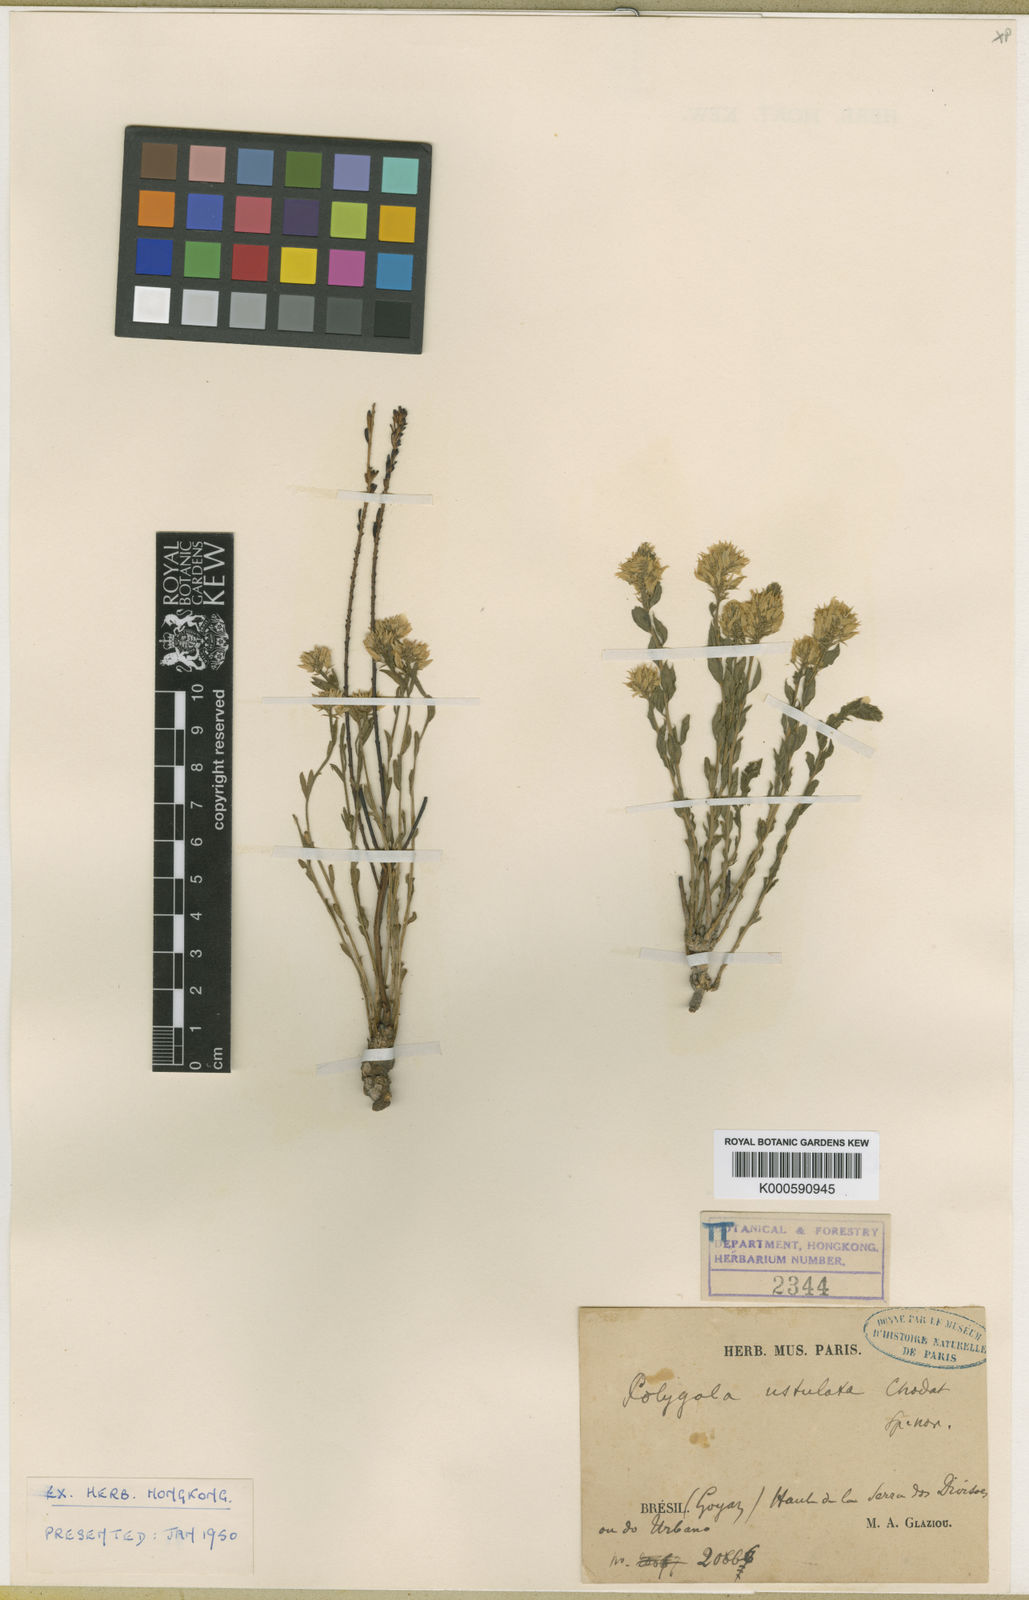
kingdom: Plantae
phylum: Tracheophyta
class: Magnoliopsida
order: Fabales
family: Polygalaceae
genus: Polygala
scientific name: Polygala
